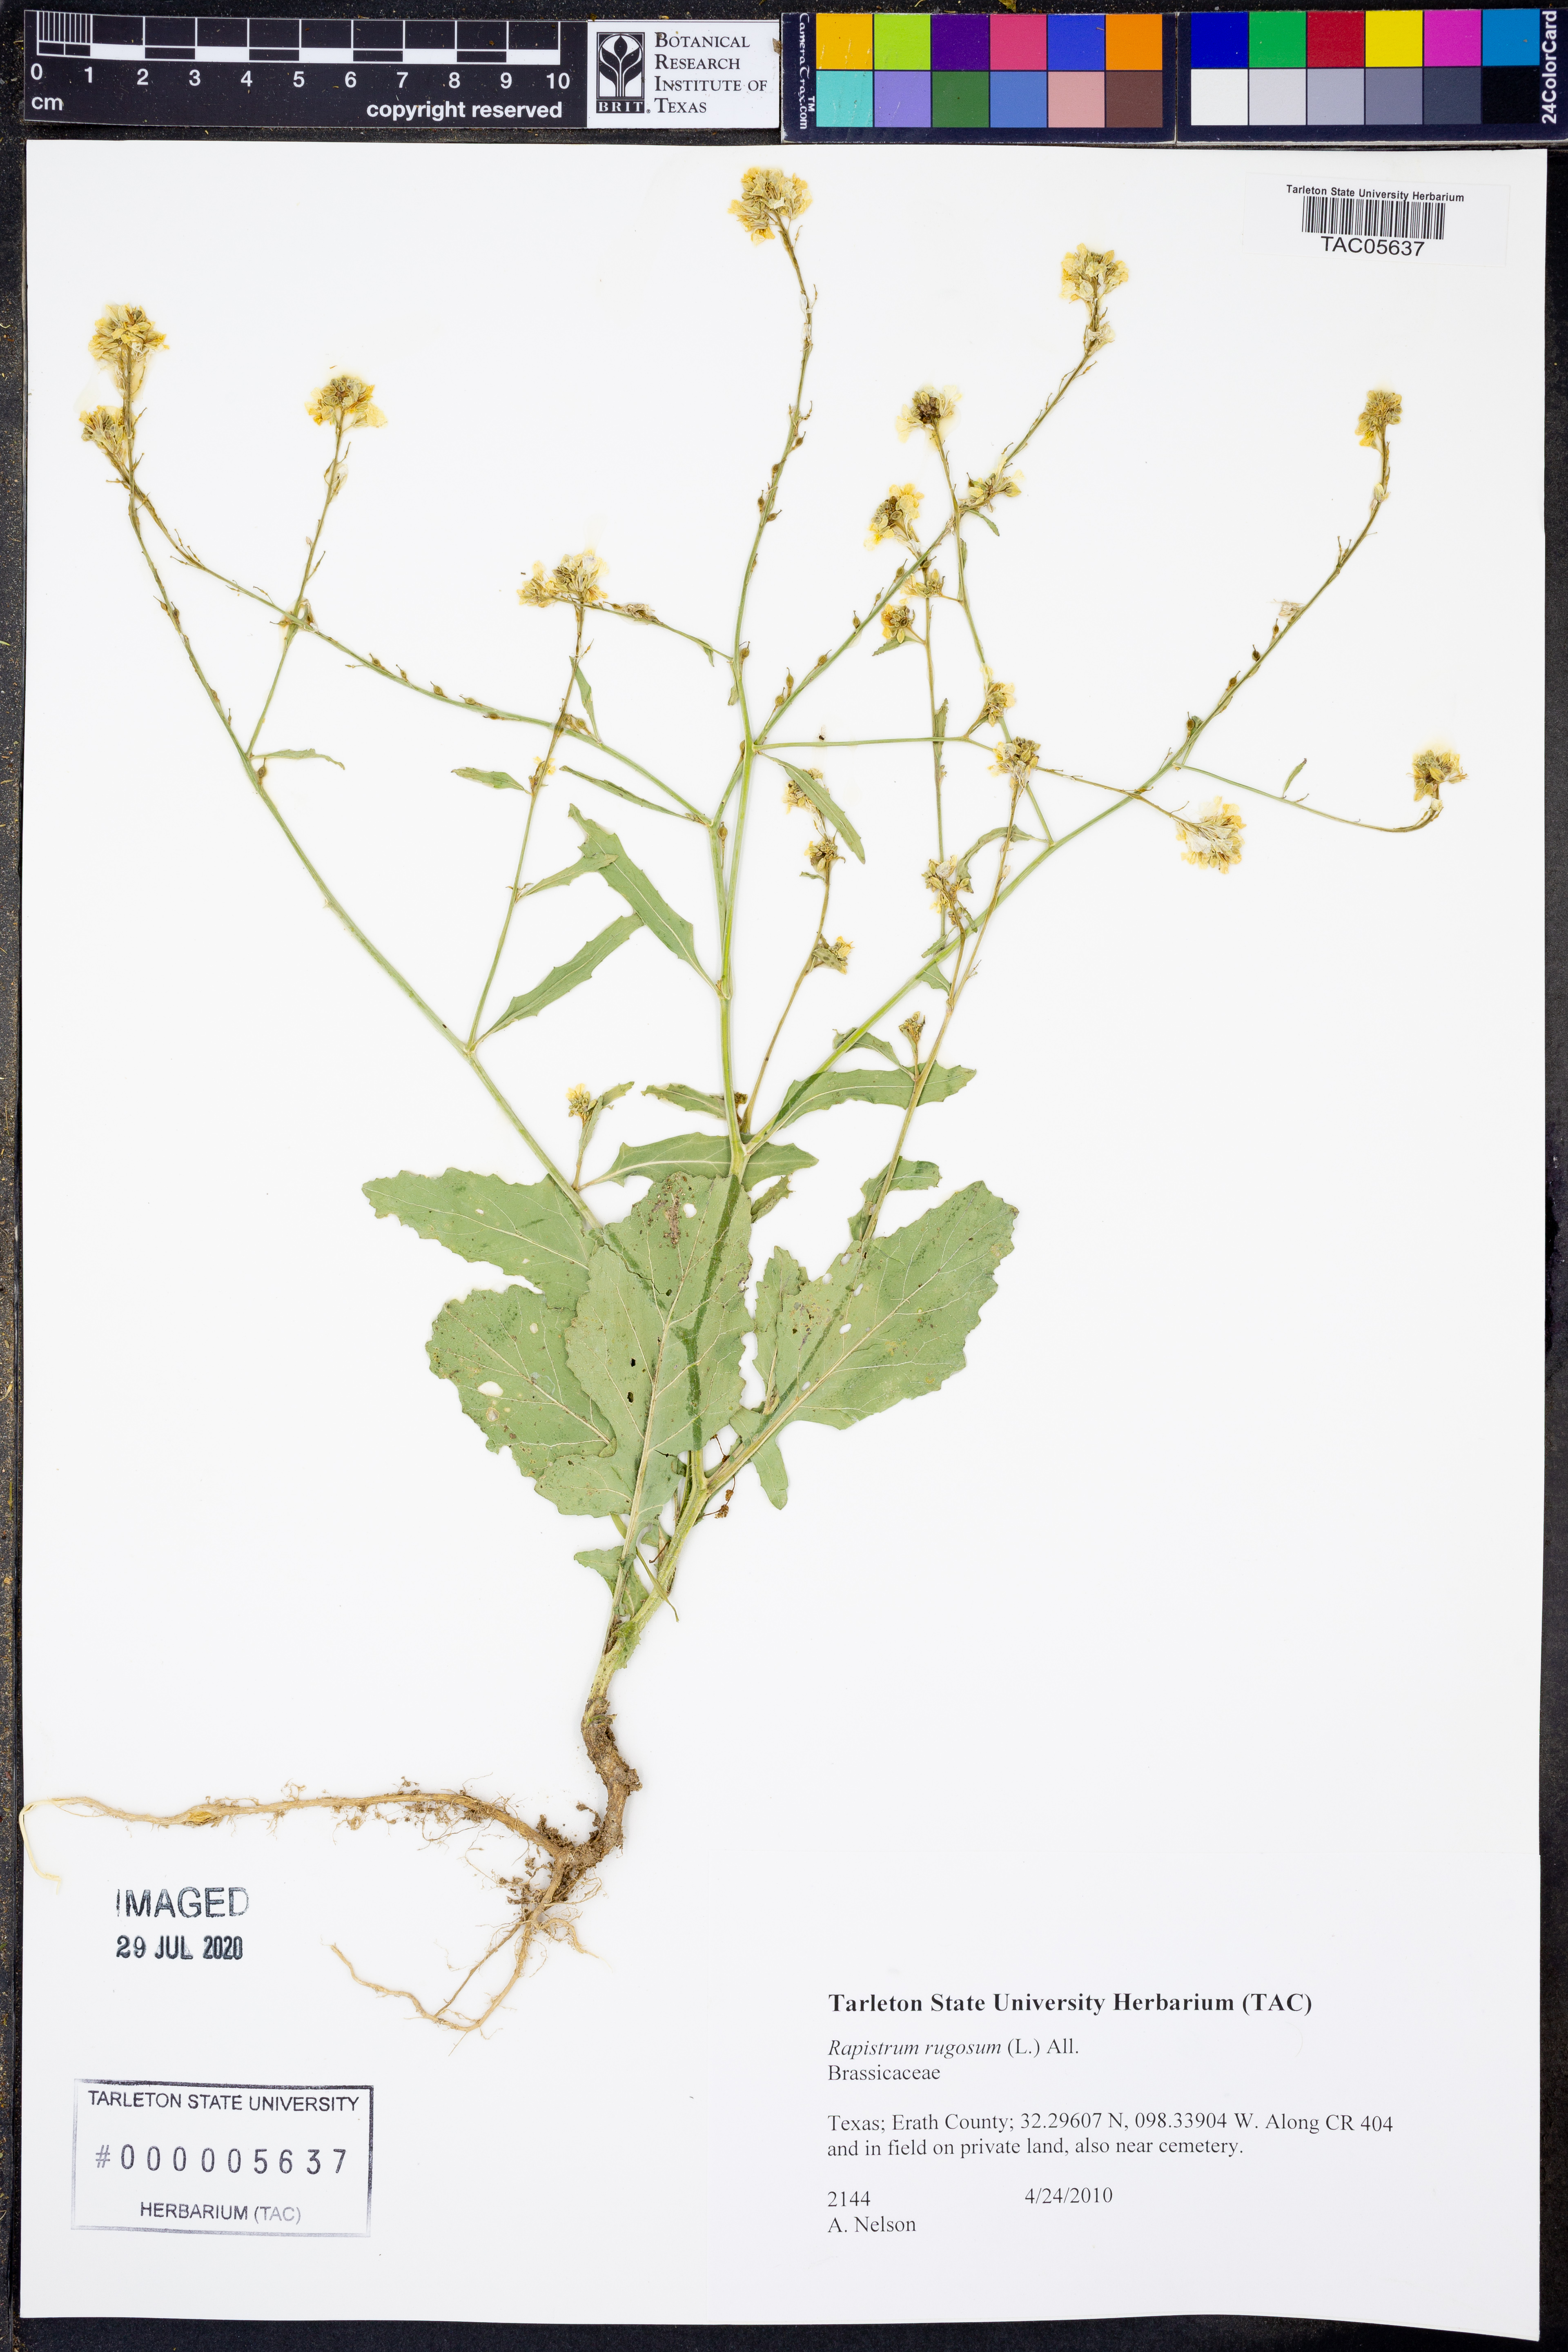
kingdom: Plantae
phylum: Tracheophyta
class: Magnoliopsida
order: Brassicales
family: Brassicaceae
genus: Rapistrum
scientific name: Rapistrum rugosum
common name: Annual bastardcabbage
